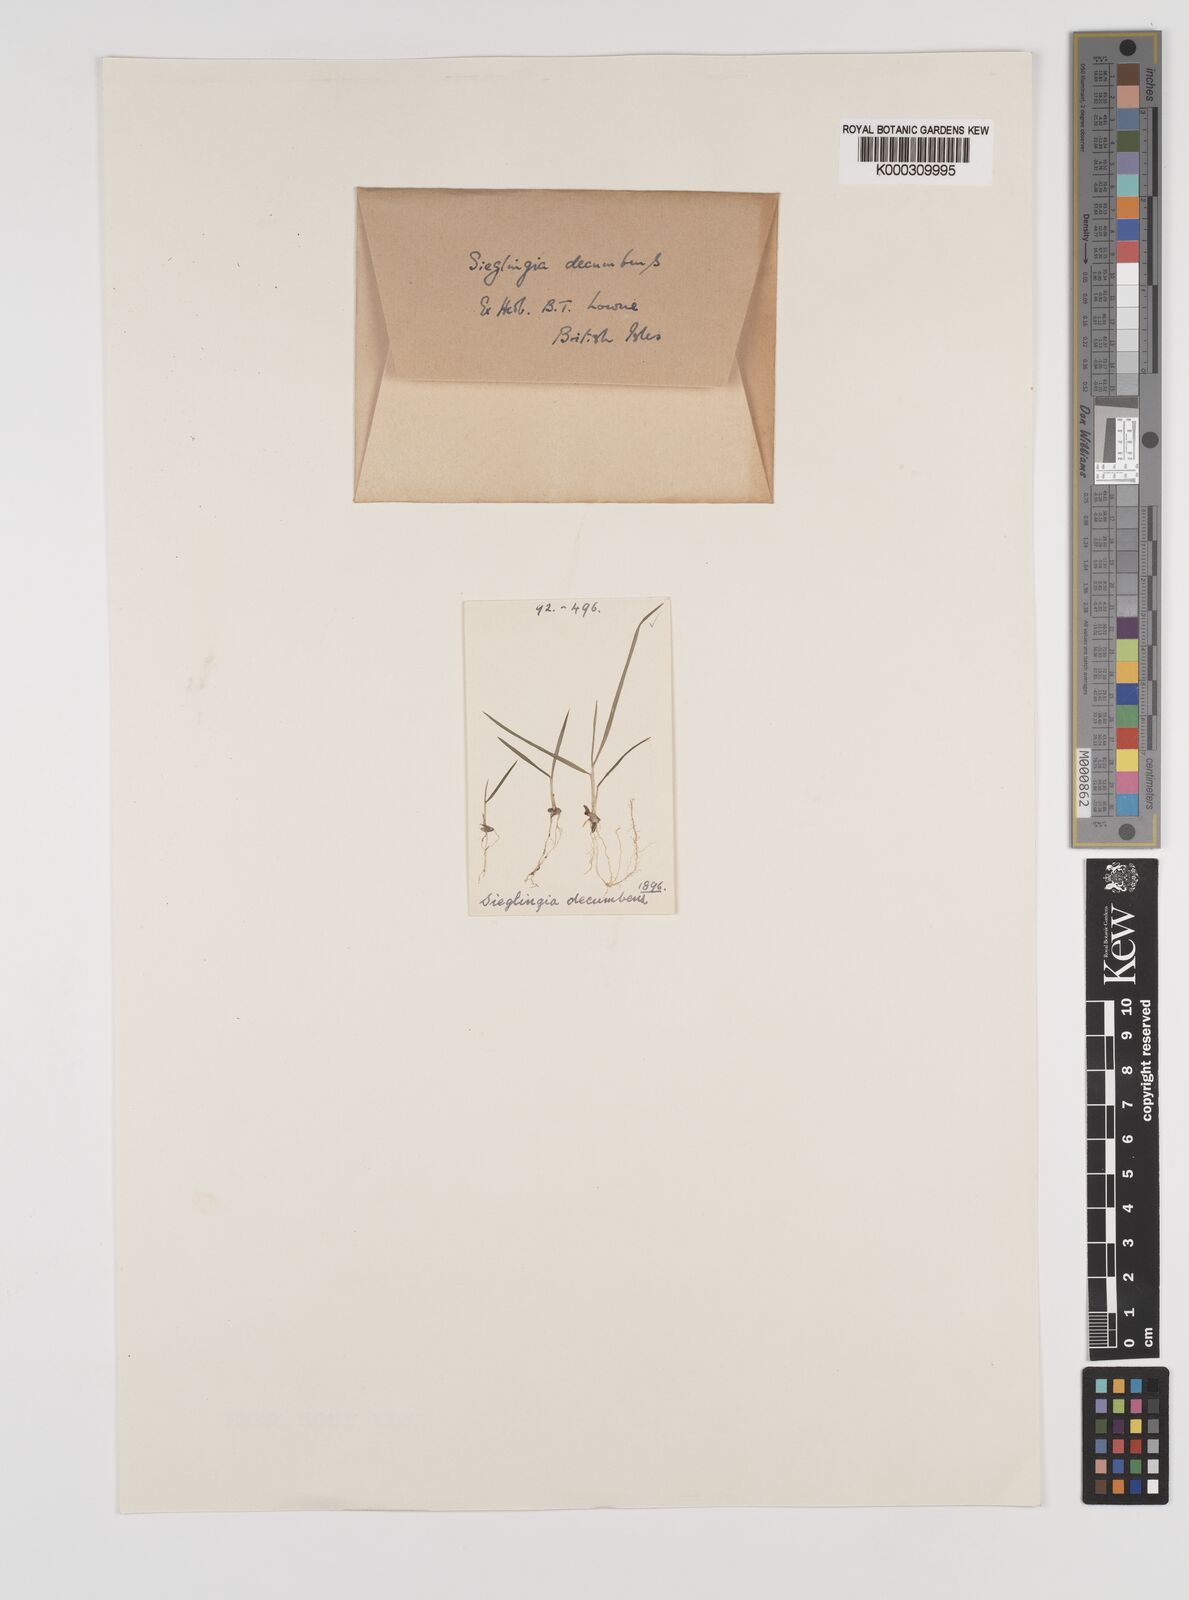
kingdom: Plantae
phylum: Tracheophyta
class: Liliopsida
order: Poales
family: Poaceae
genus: Danthonia
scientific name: Danthonia decumbens
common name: Common heathgrass
